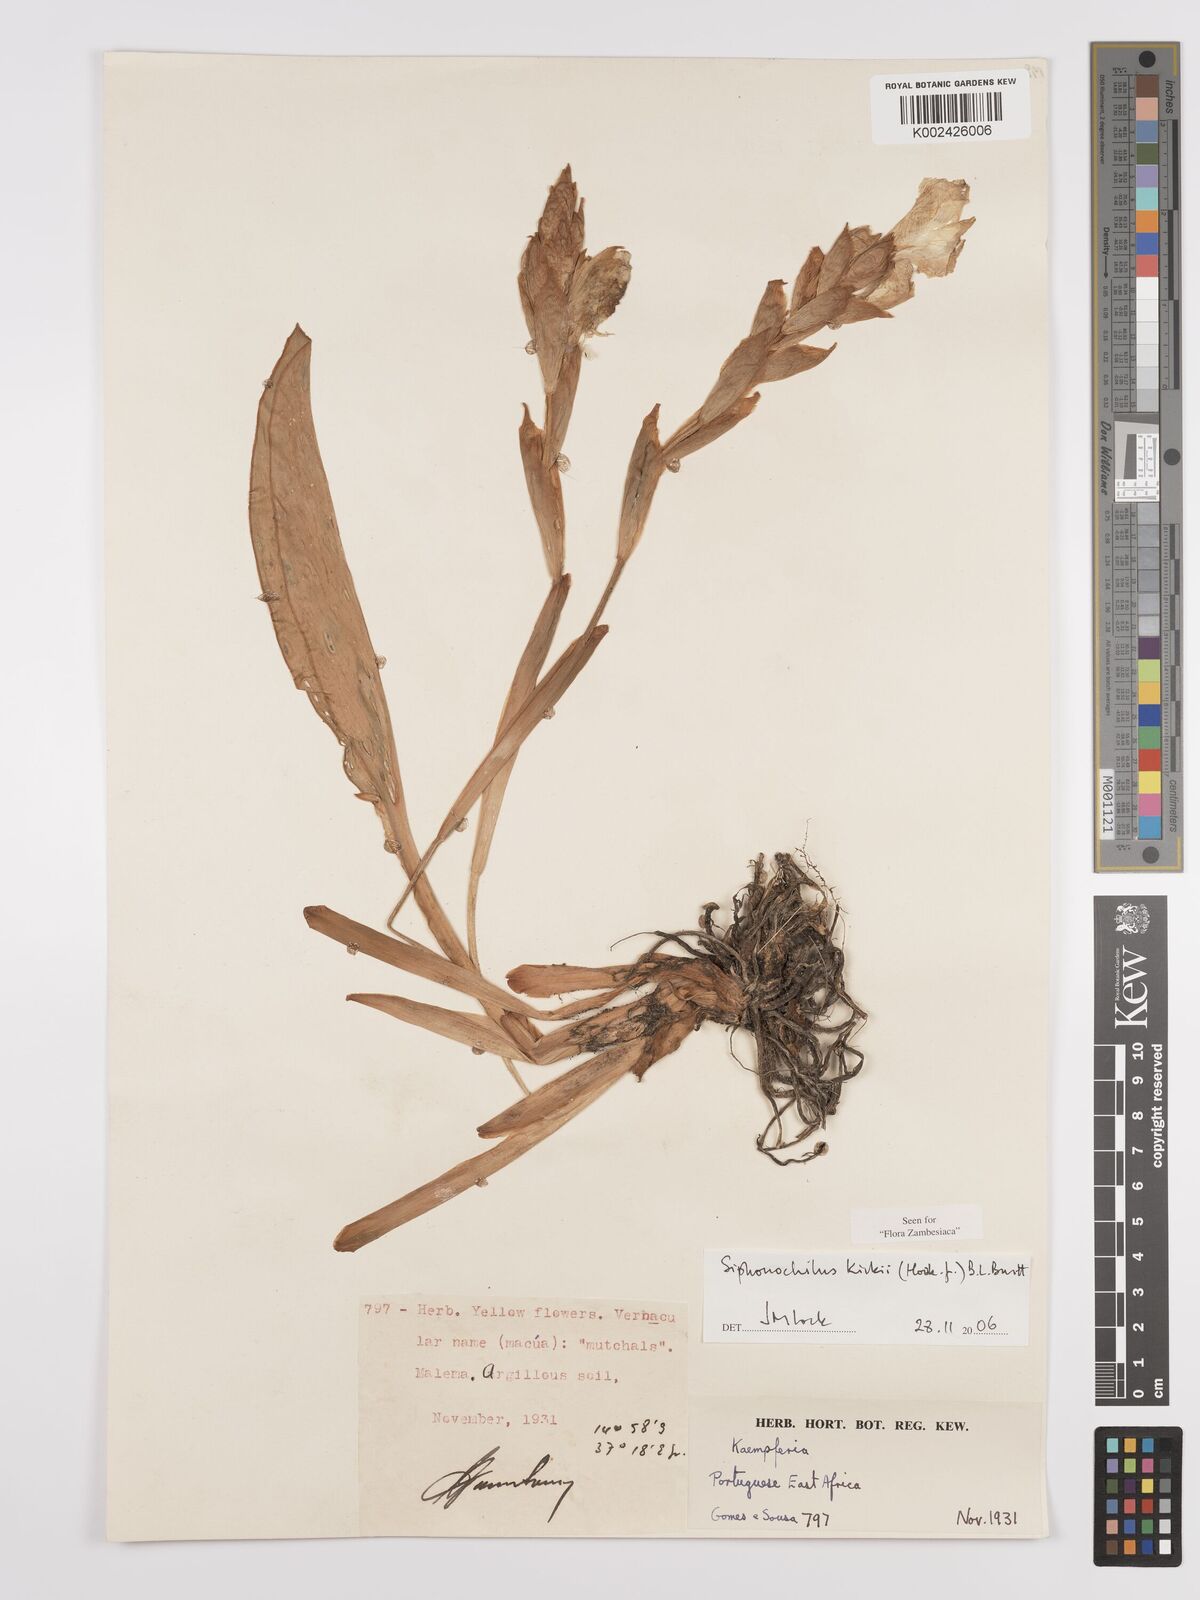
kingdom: Plantae
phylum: Tracheophyta
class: Liliopsida
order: Zingiberales
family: Zingiberaceae
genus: Siphonochilus
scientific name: Siphonochilus kirkii
